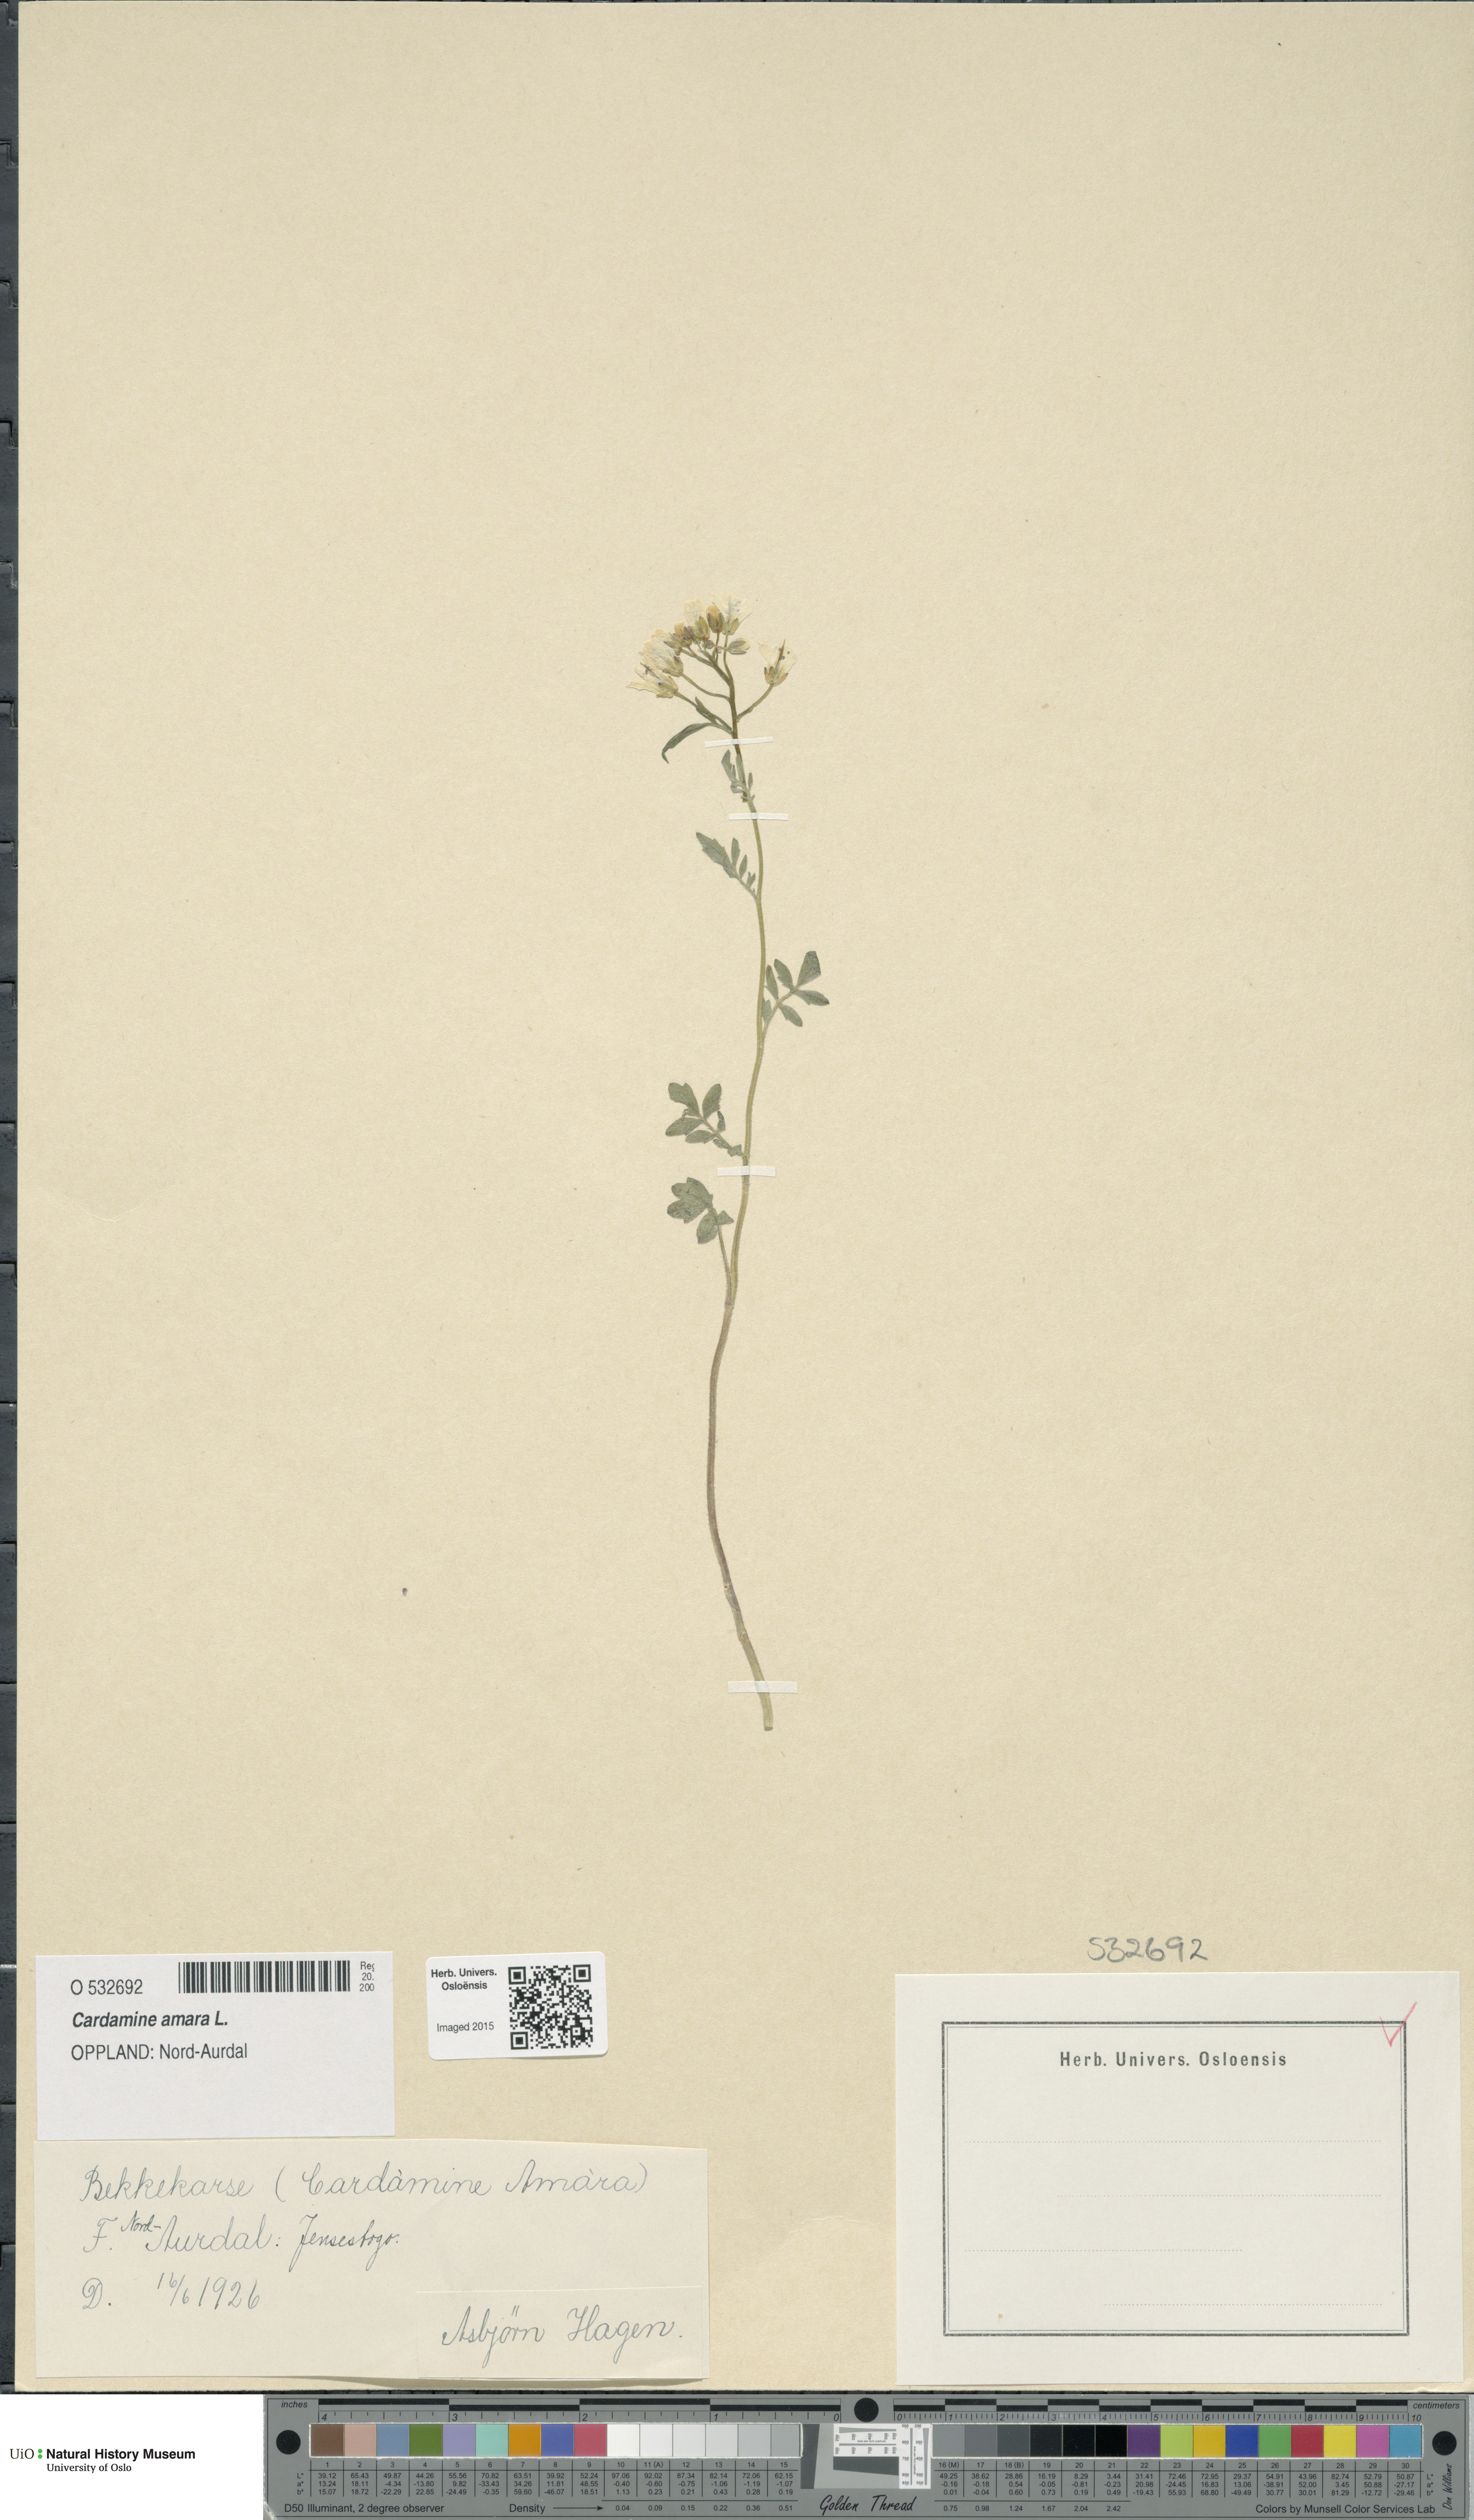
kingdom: Plantae
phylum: Tracheophyta
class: Magnoliopsida
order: Brassicales
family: Brassicaceae
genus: Cardamine
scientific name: Cardamine amara
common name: Large bitter-cress
